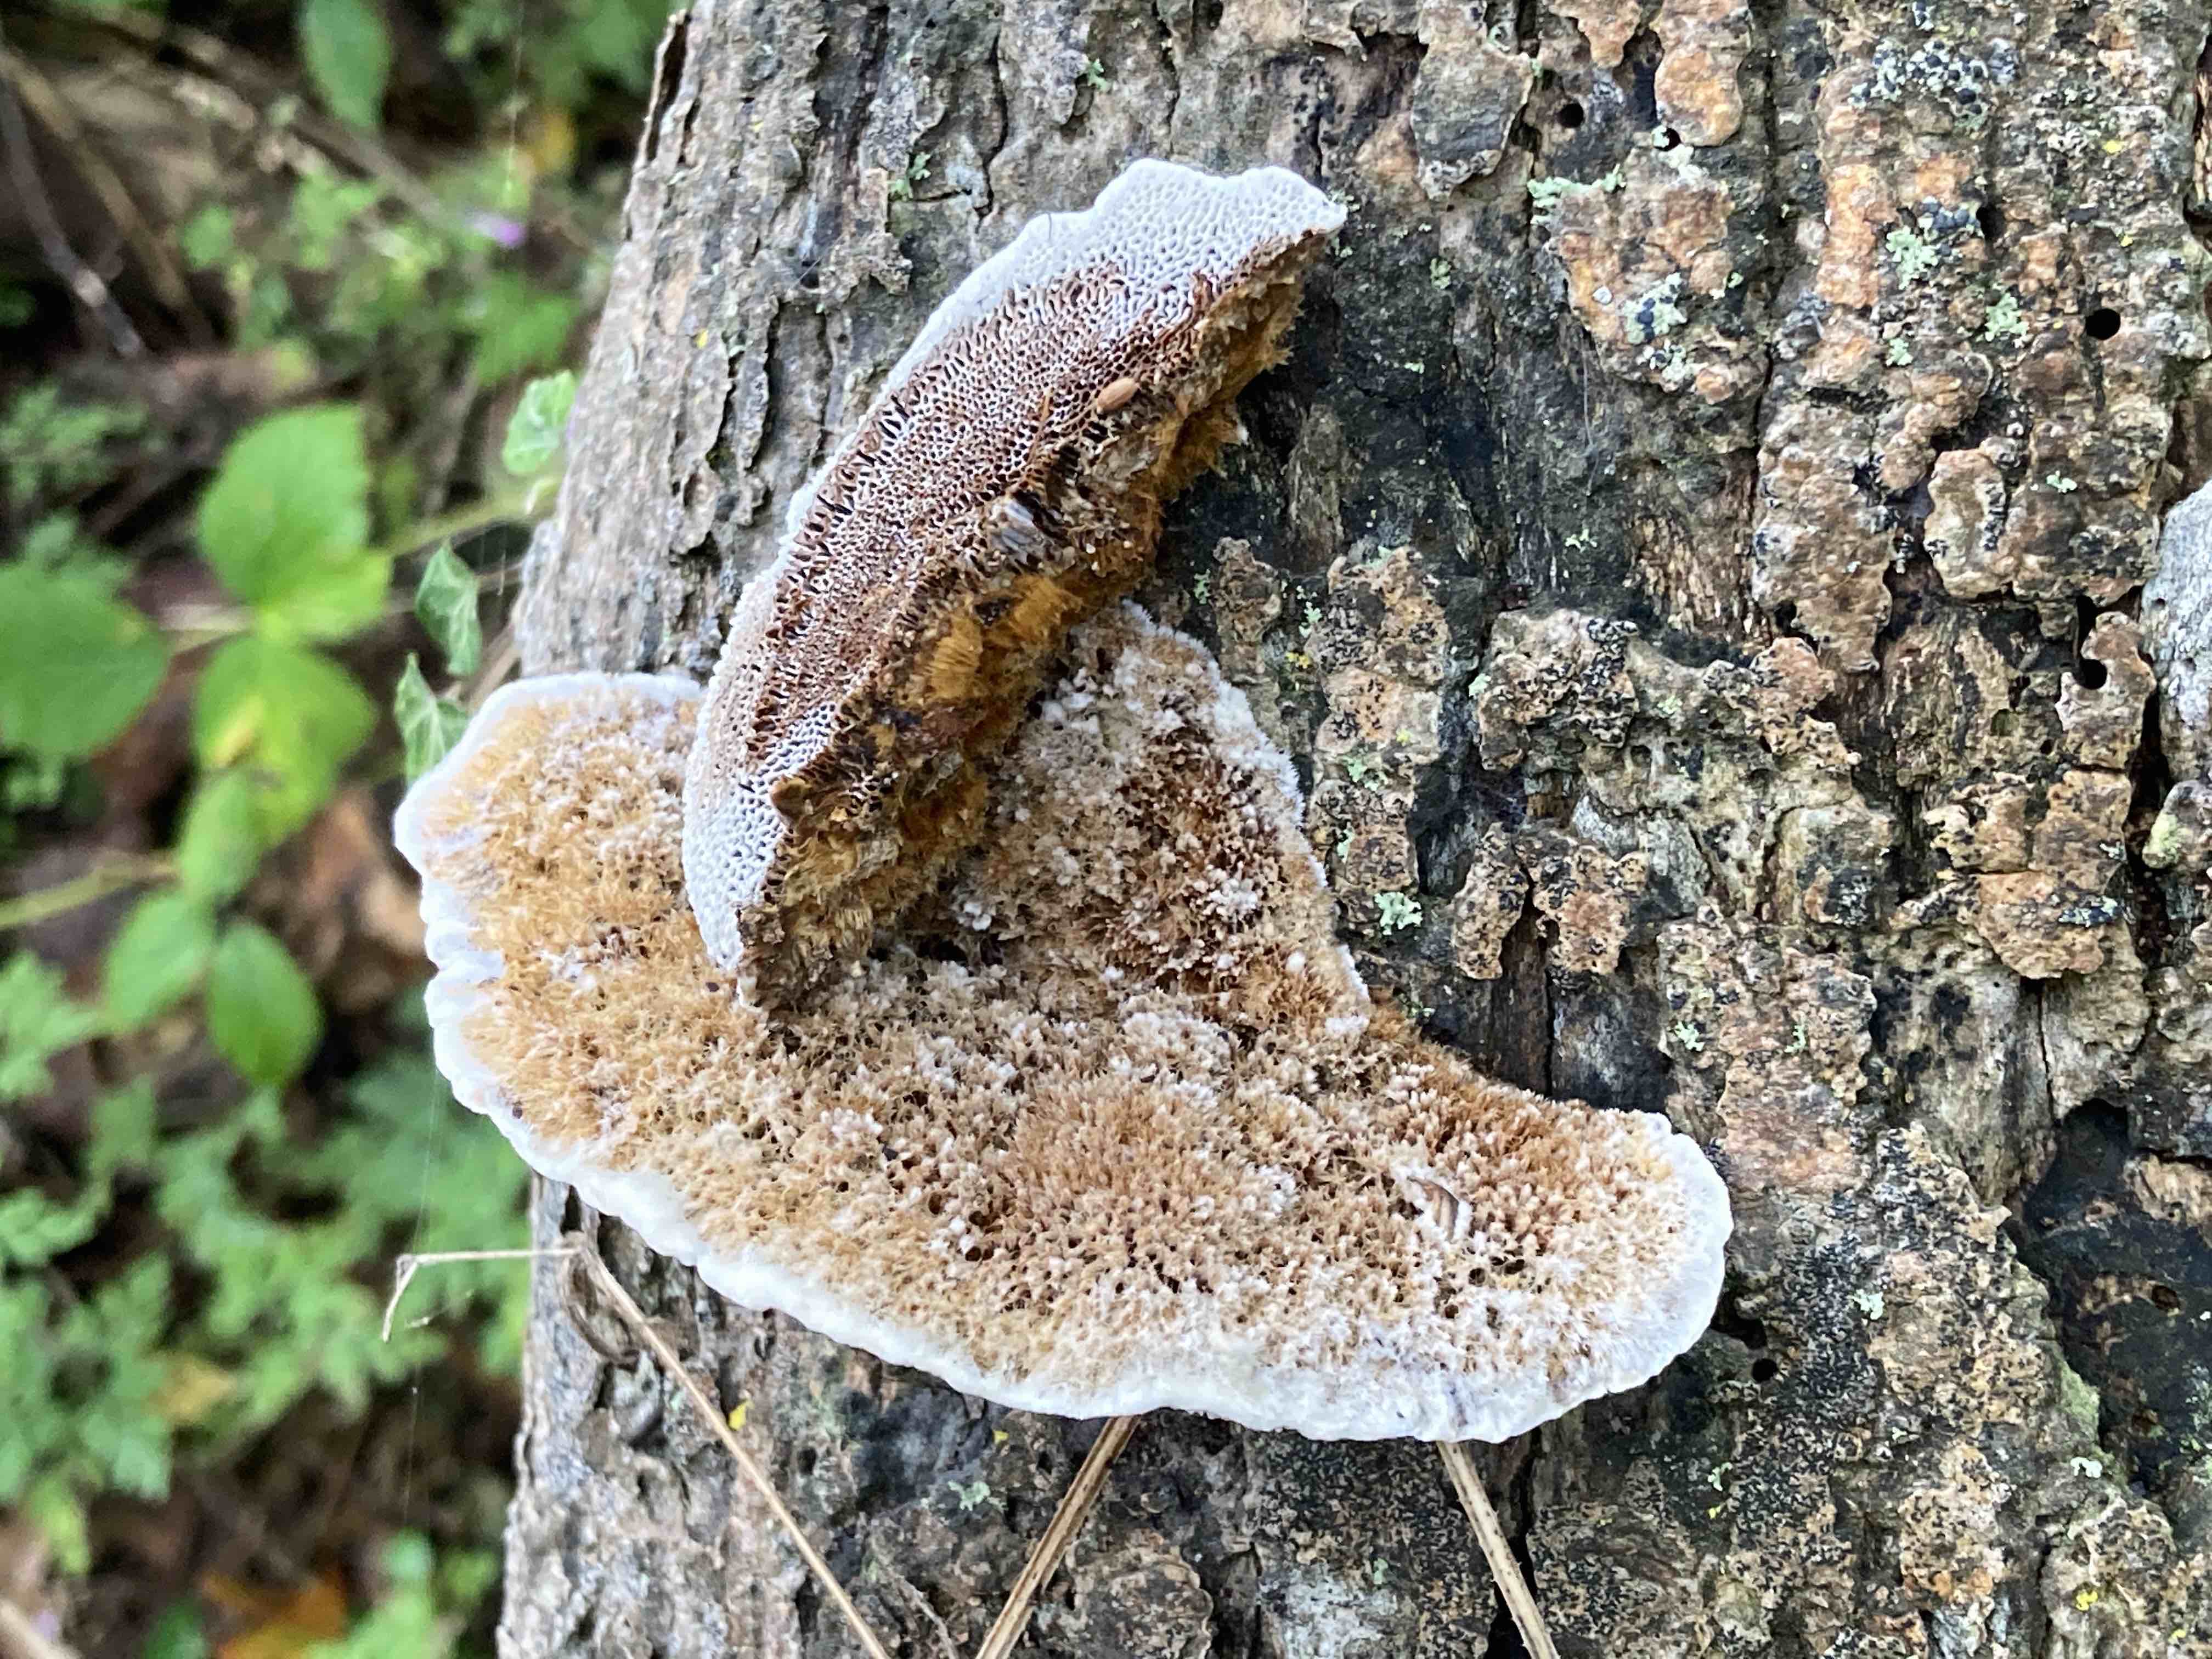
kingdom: Fungi
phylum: Basidiomycota
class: Agaricomycetes
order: Polyporales
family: Polyporaceae
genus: Daedaleopsis
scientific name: Daedaleopsis confragosa
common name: rødmende læderporesvamp
